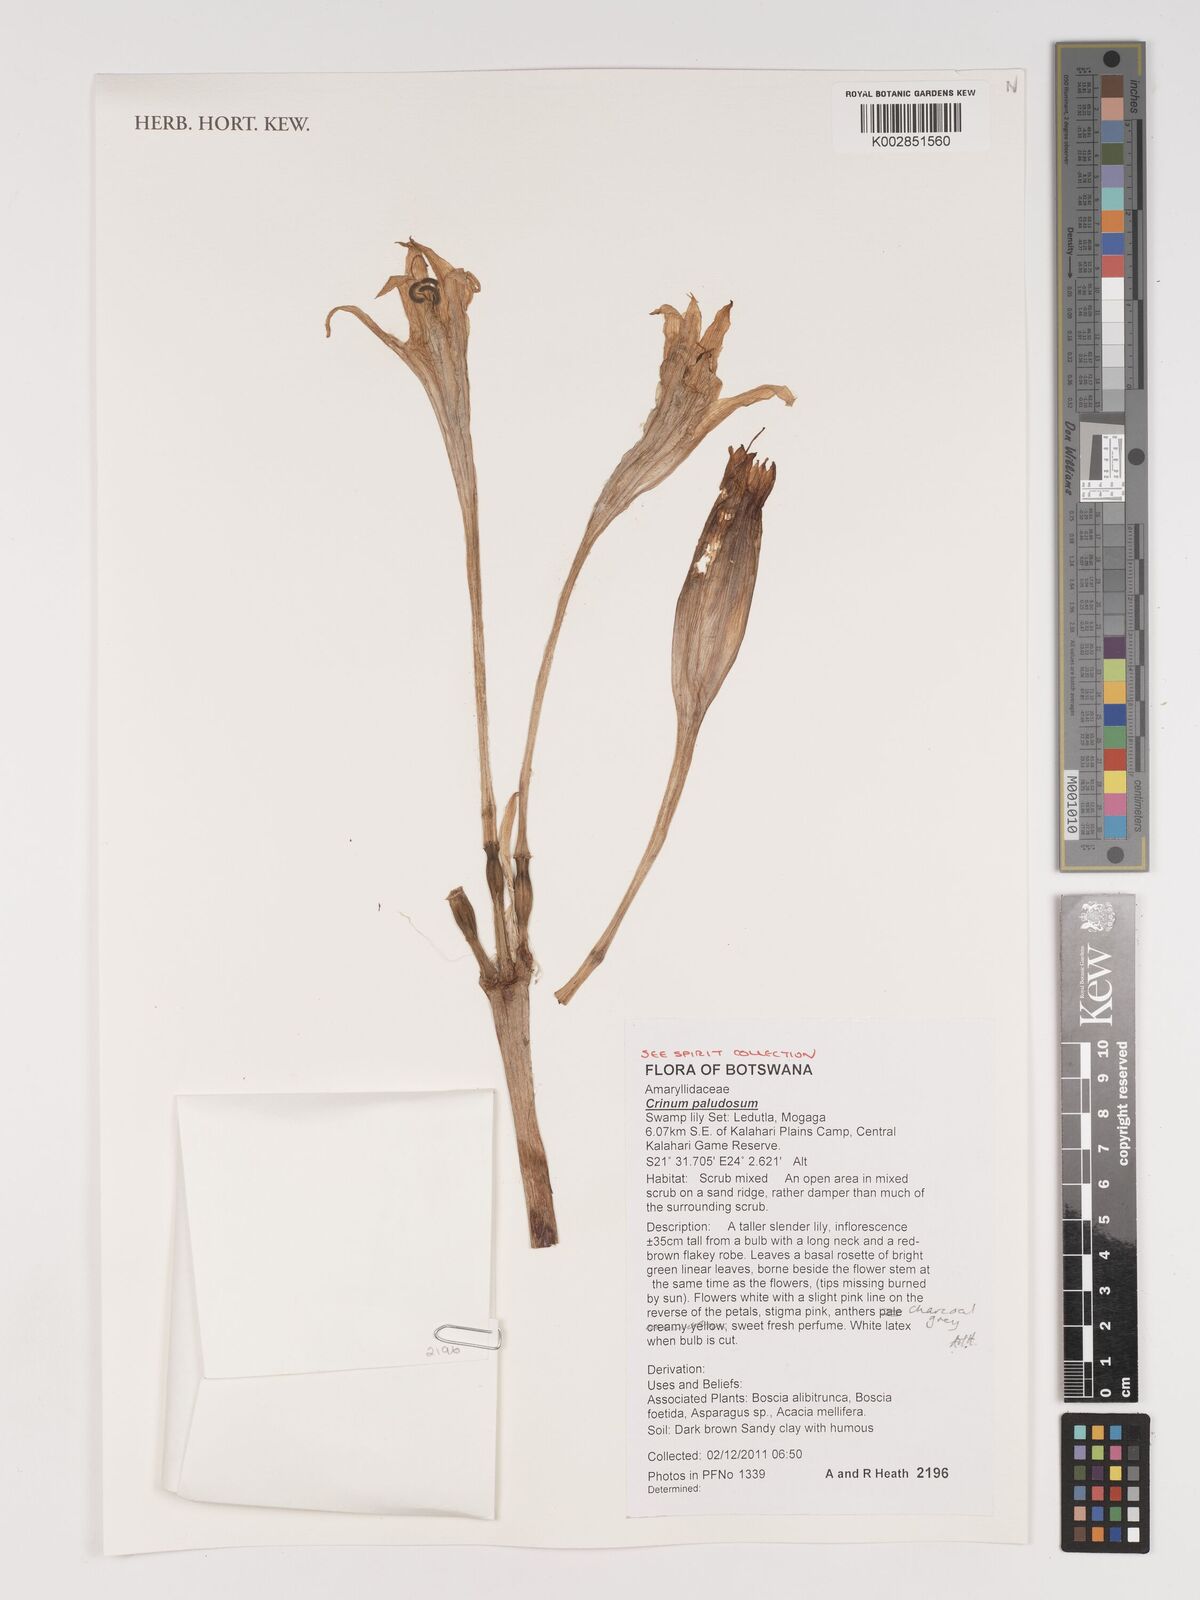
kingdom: Plantae
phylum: Tracheophyta
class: Liliopsida
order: Asparagales
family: Amaryllidaceae
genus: Crinum
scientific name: Crinum paludosum
